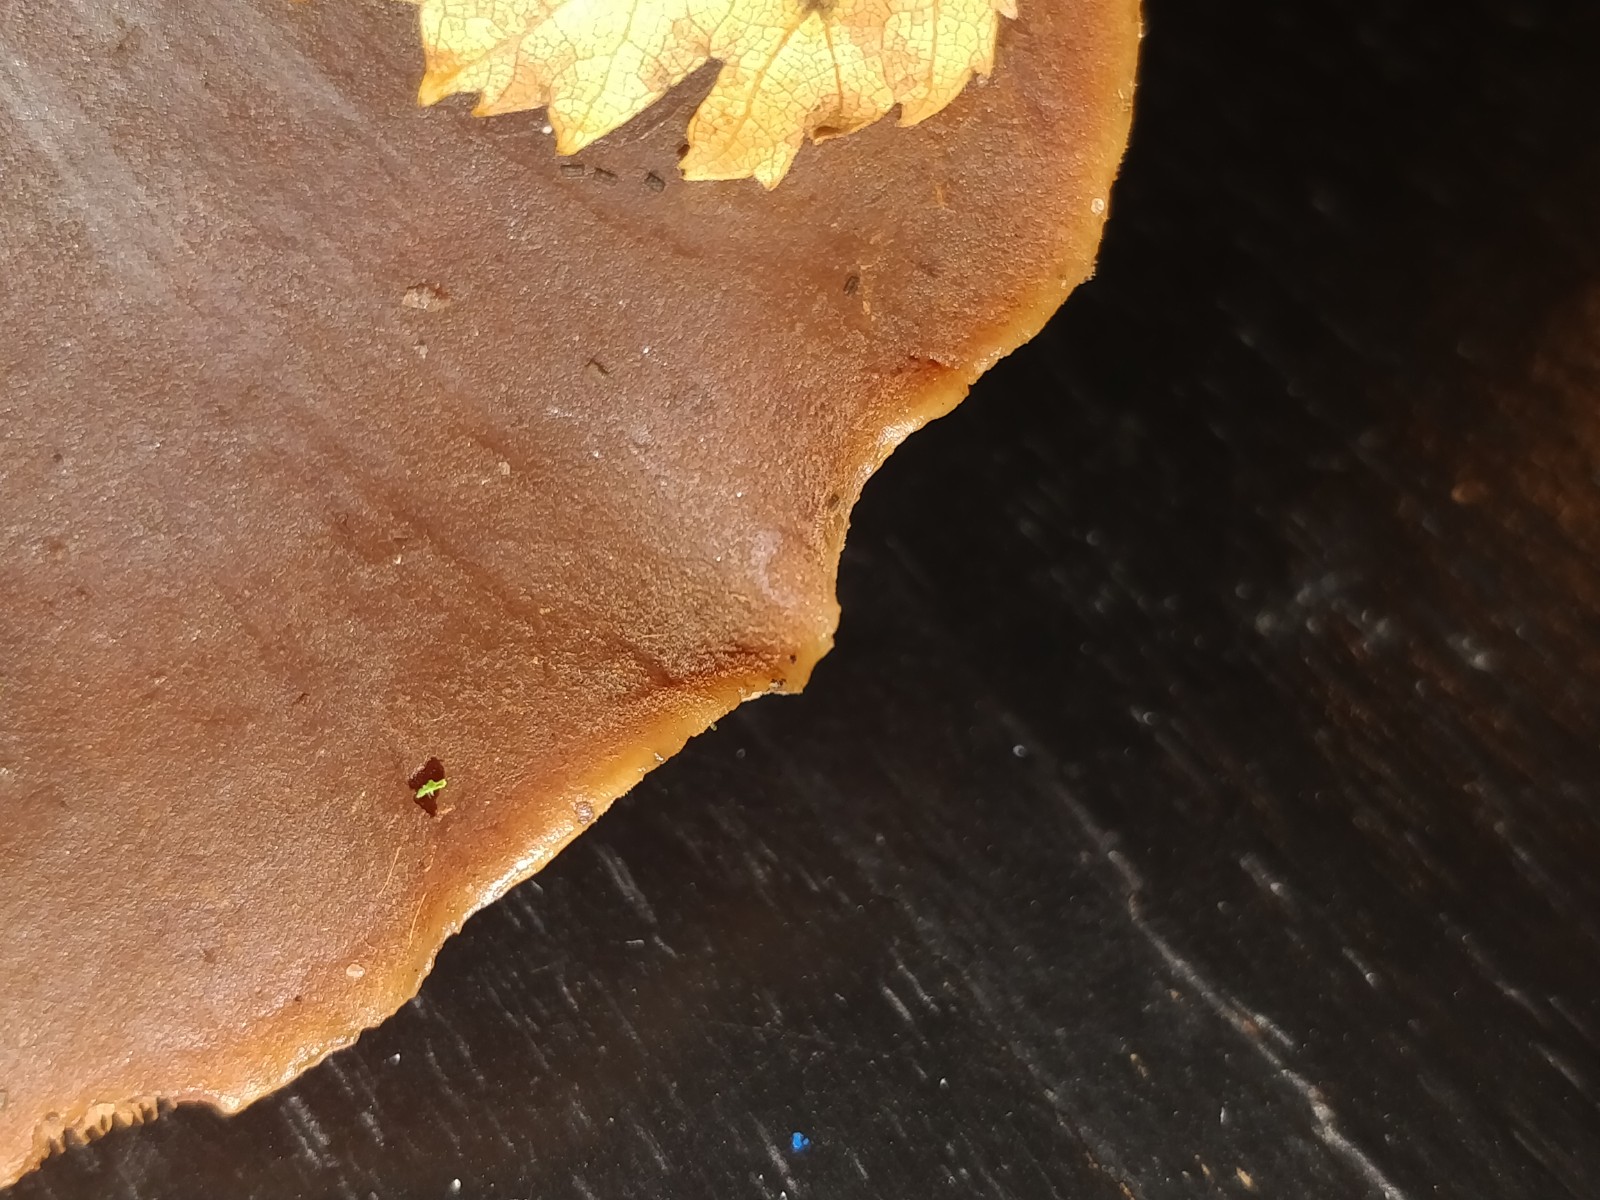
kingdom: Fungi
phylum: Basidiomycota
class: Agaricomycetes
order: Agaricales
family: Macrocystidiaceae
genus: Macrocystidia
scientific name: Macrocystidia cucumis
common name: agurkehat
